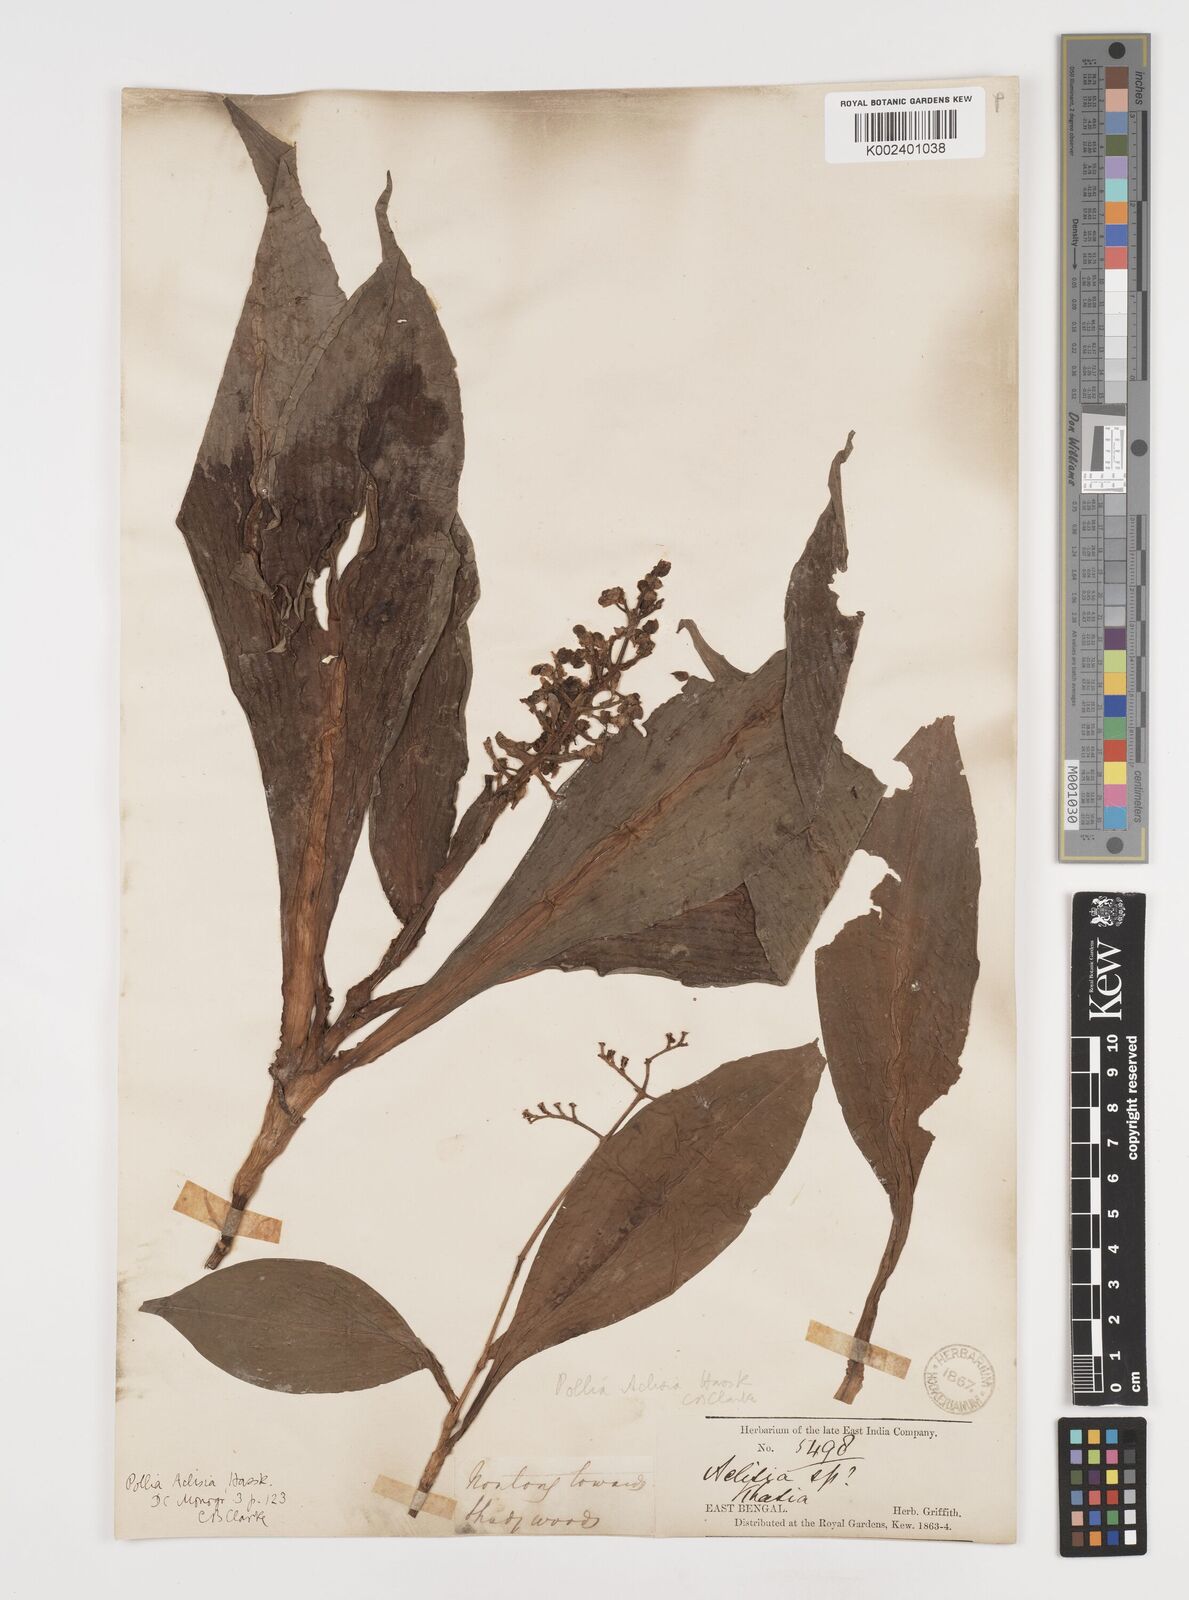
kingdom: Plantae
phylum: Tracheophyta
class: Liliopsida
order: Commelinales
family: Commelinaceae
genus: Pollia
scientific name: Pollia hasskarlii
